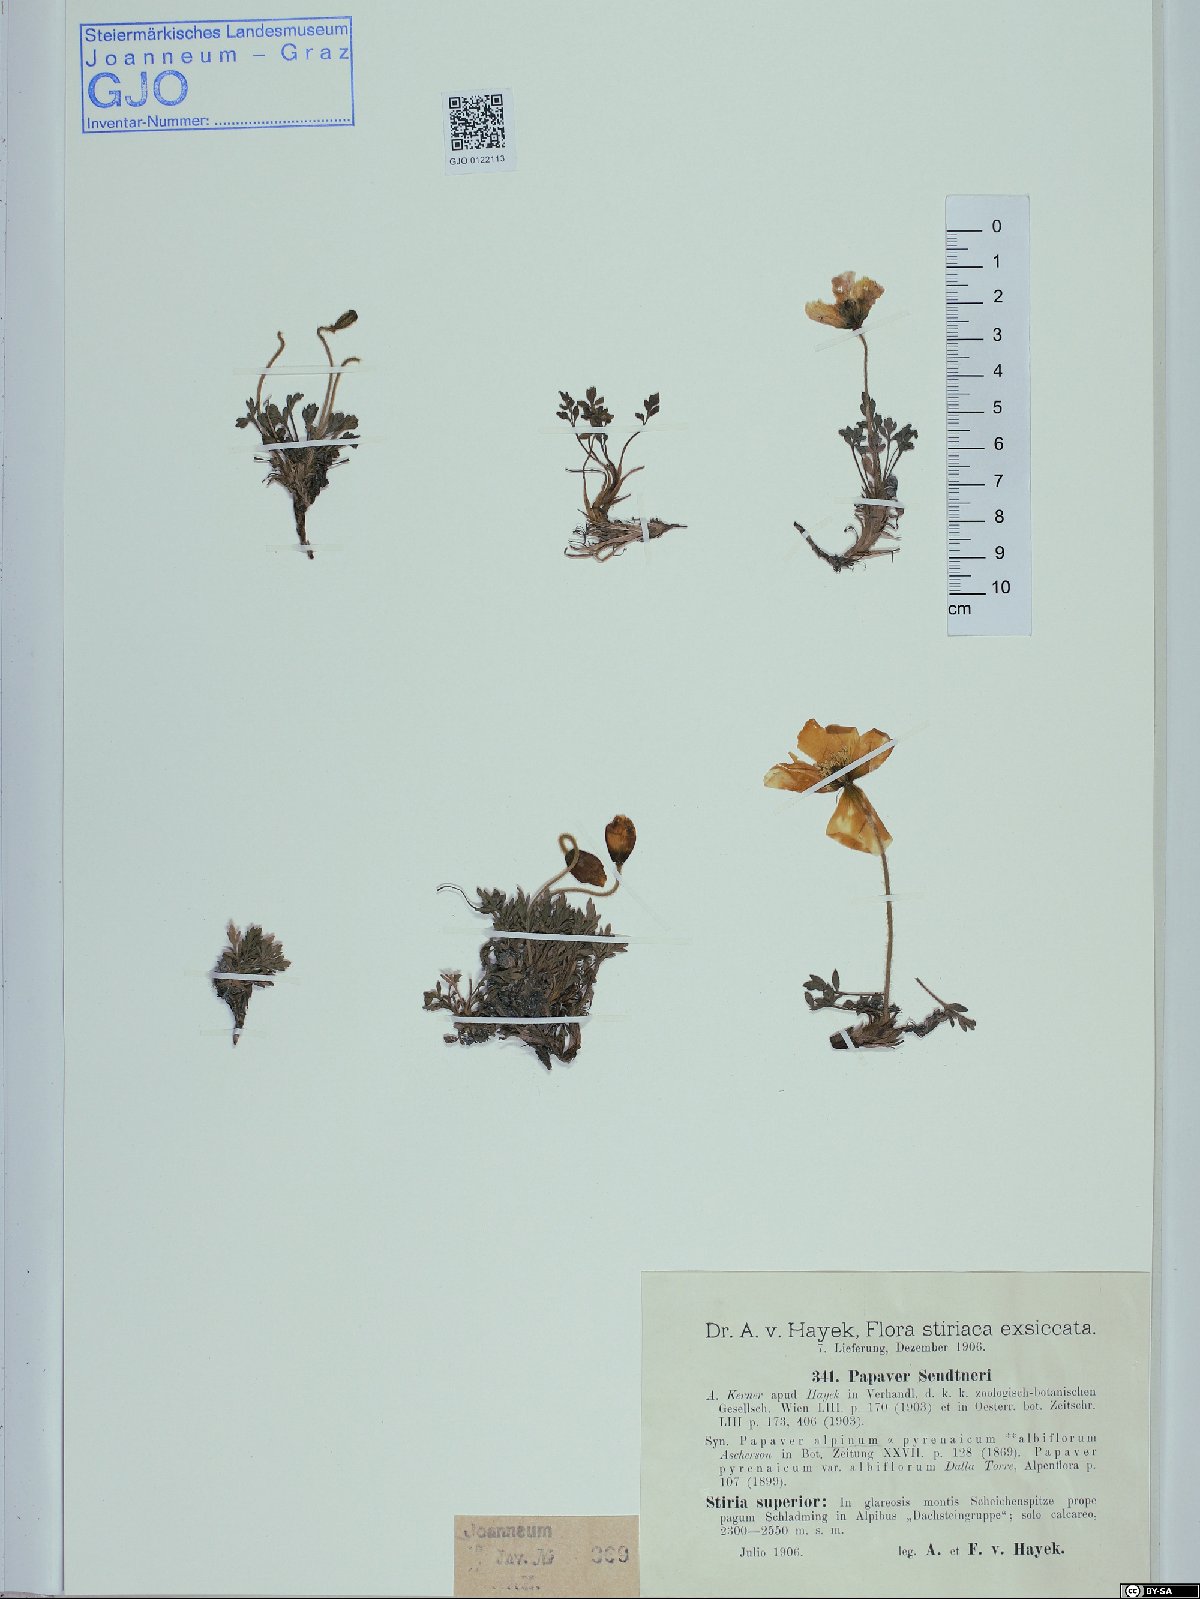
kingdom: Plantae
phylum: Tracheophyta
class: Magnoliopsida
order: Ranunculales
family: Papaveraceae
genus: Papaver
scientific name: Papaver alpinum
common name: Austrian poppy
